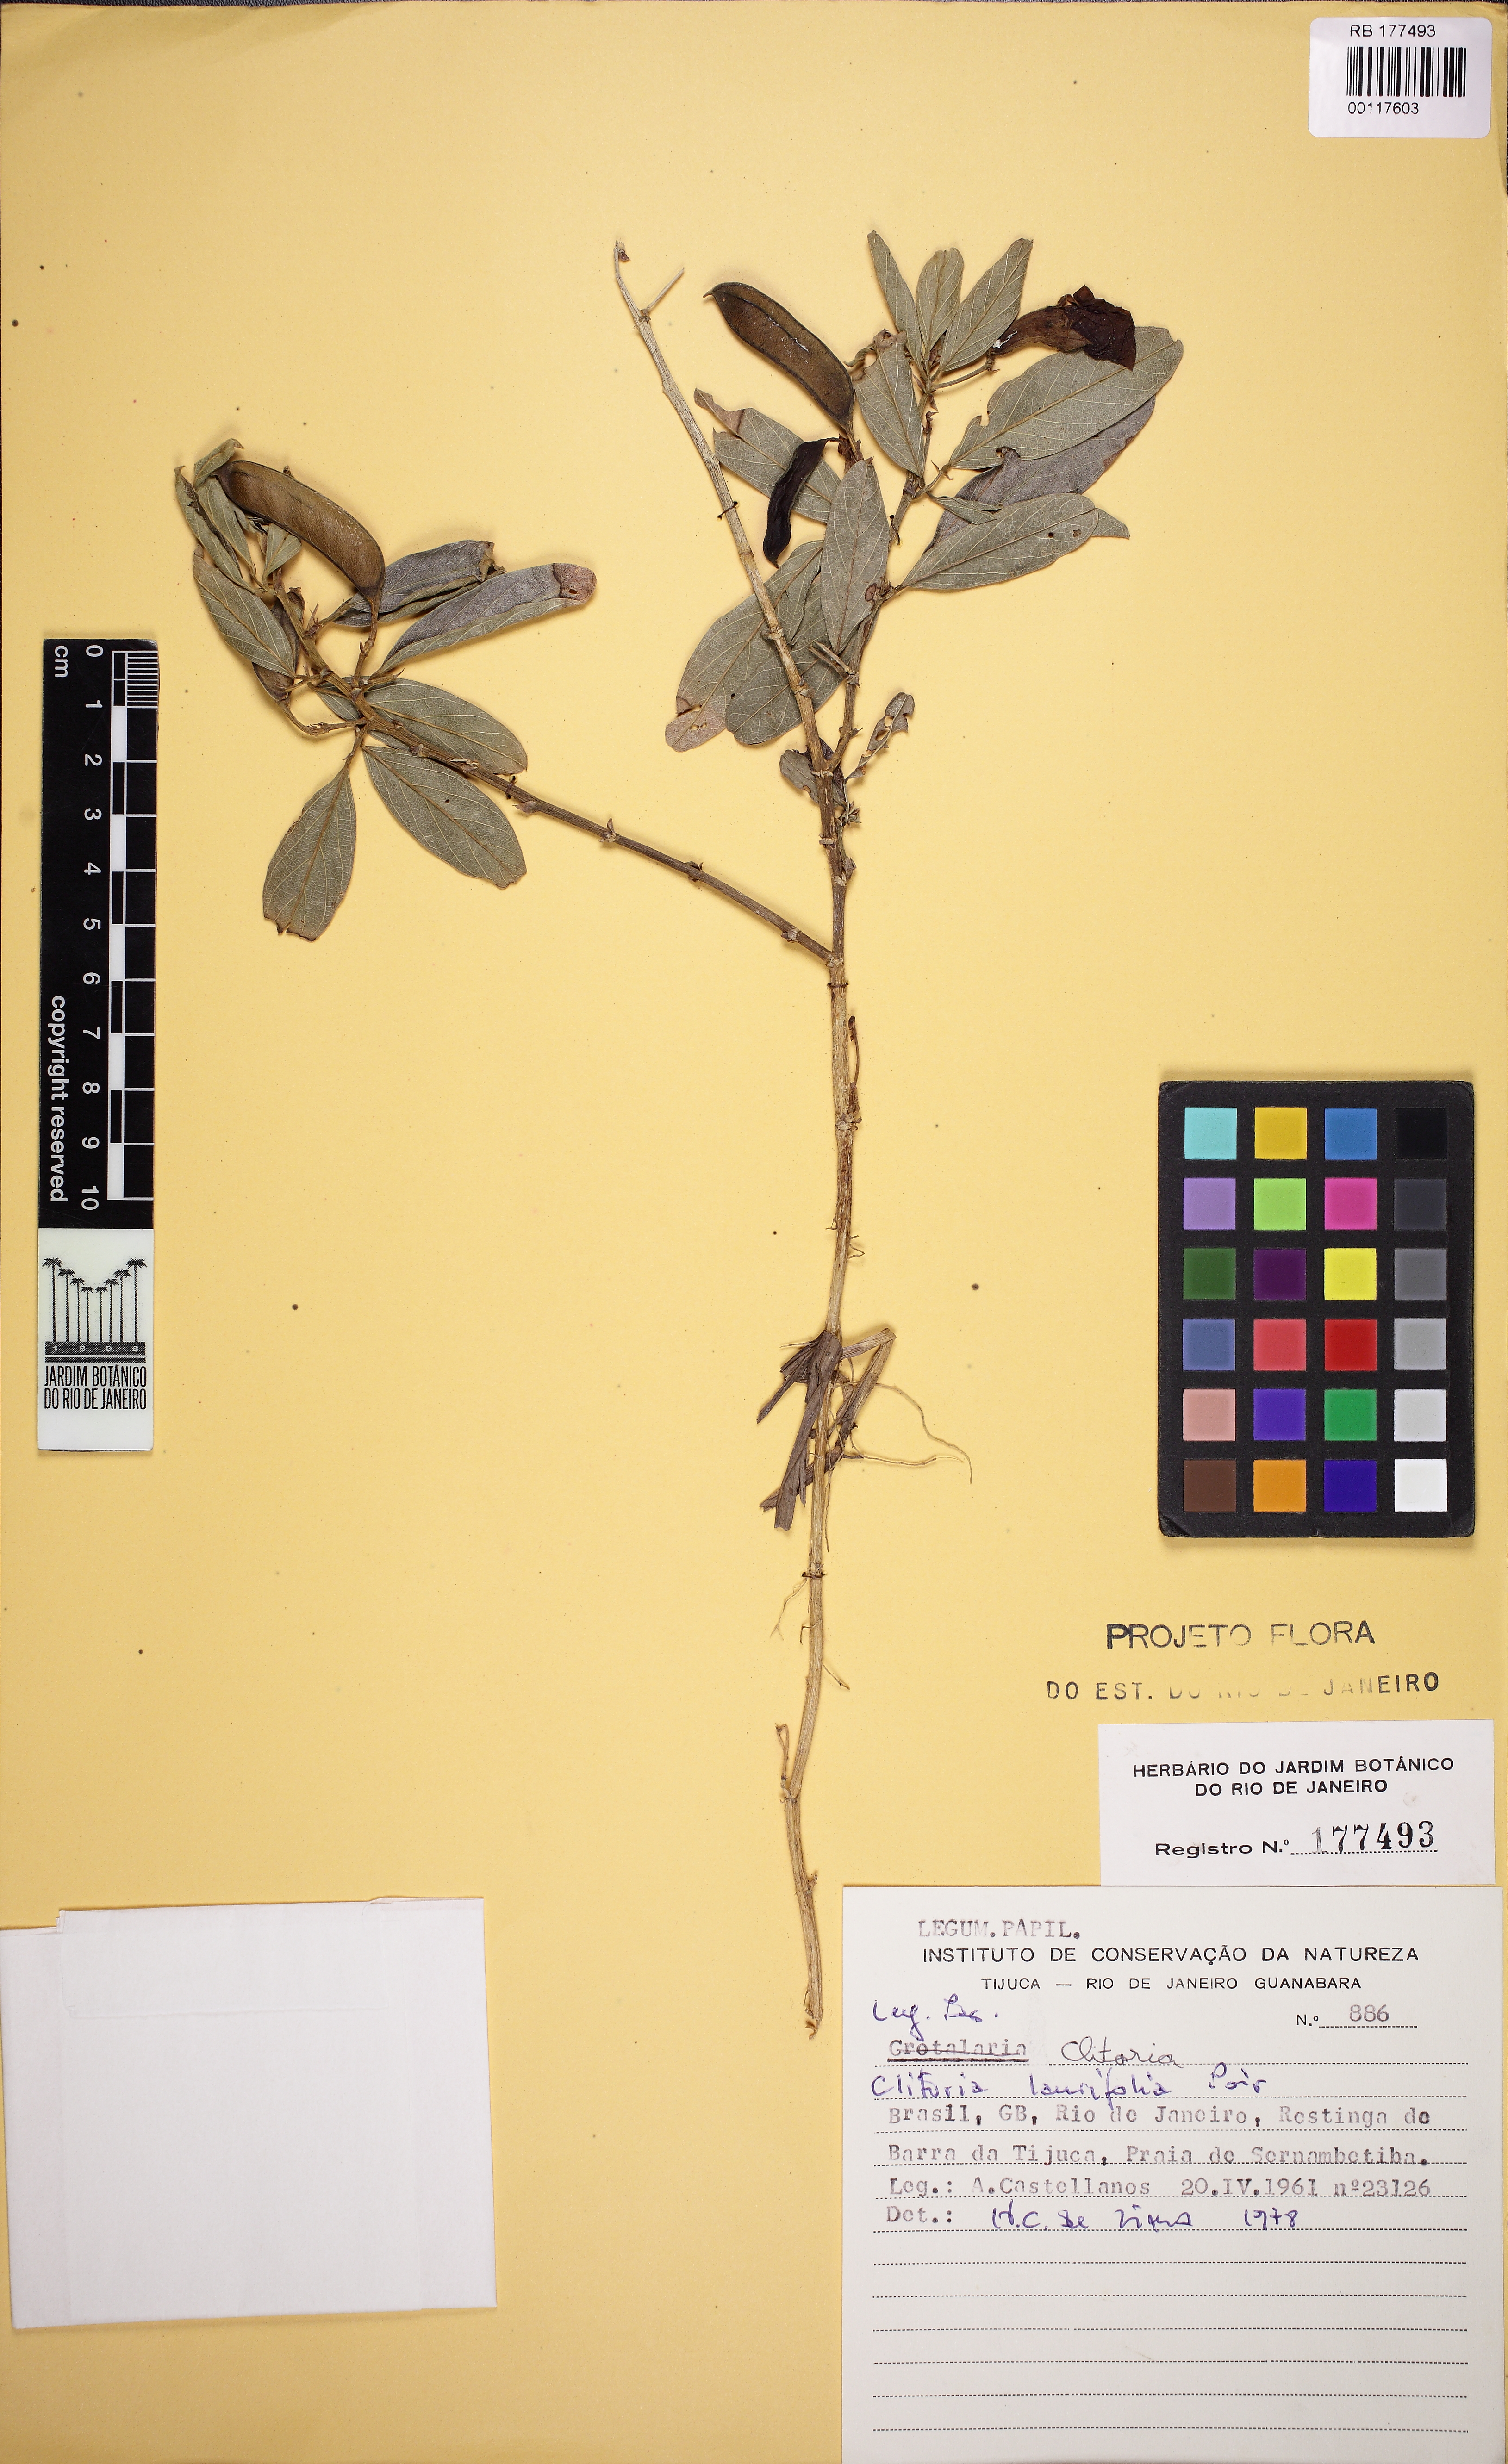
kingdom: Plantae
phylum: Tracheophyta
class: Magnoliopsida
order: Fabales
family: Fabaceae
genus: Clitoria
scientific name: Clitoria laurifolia
